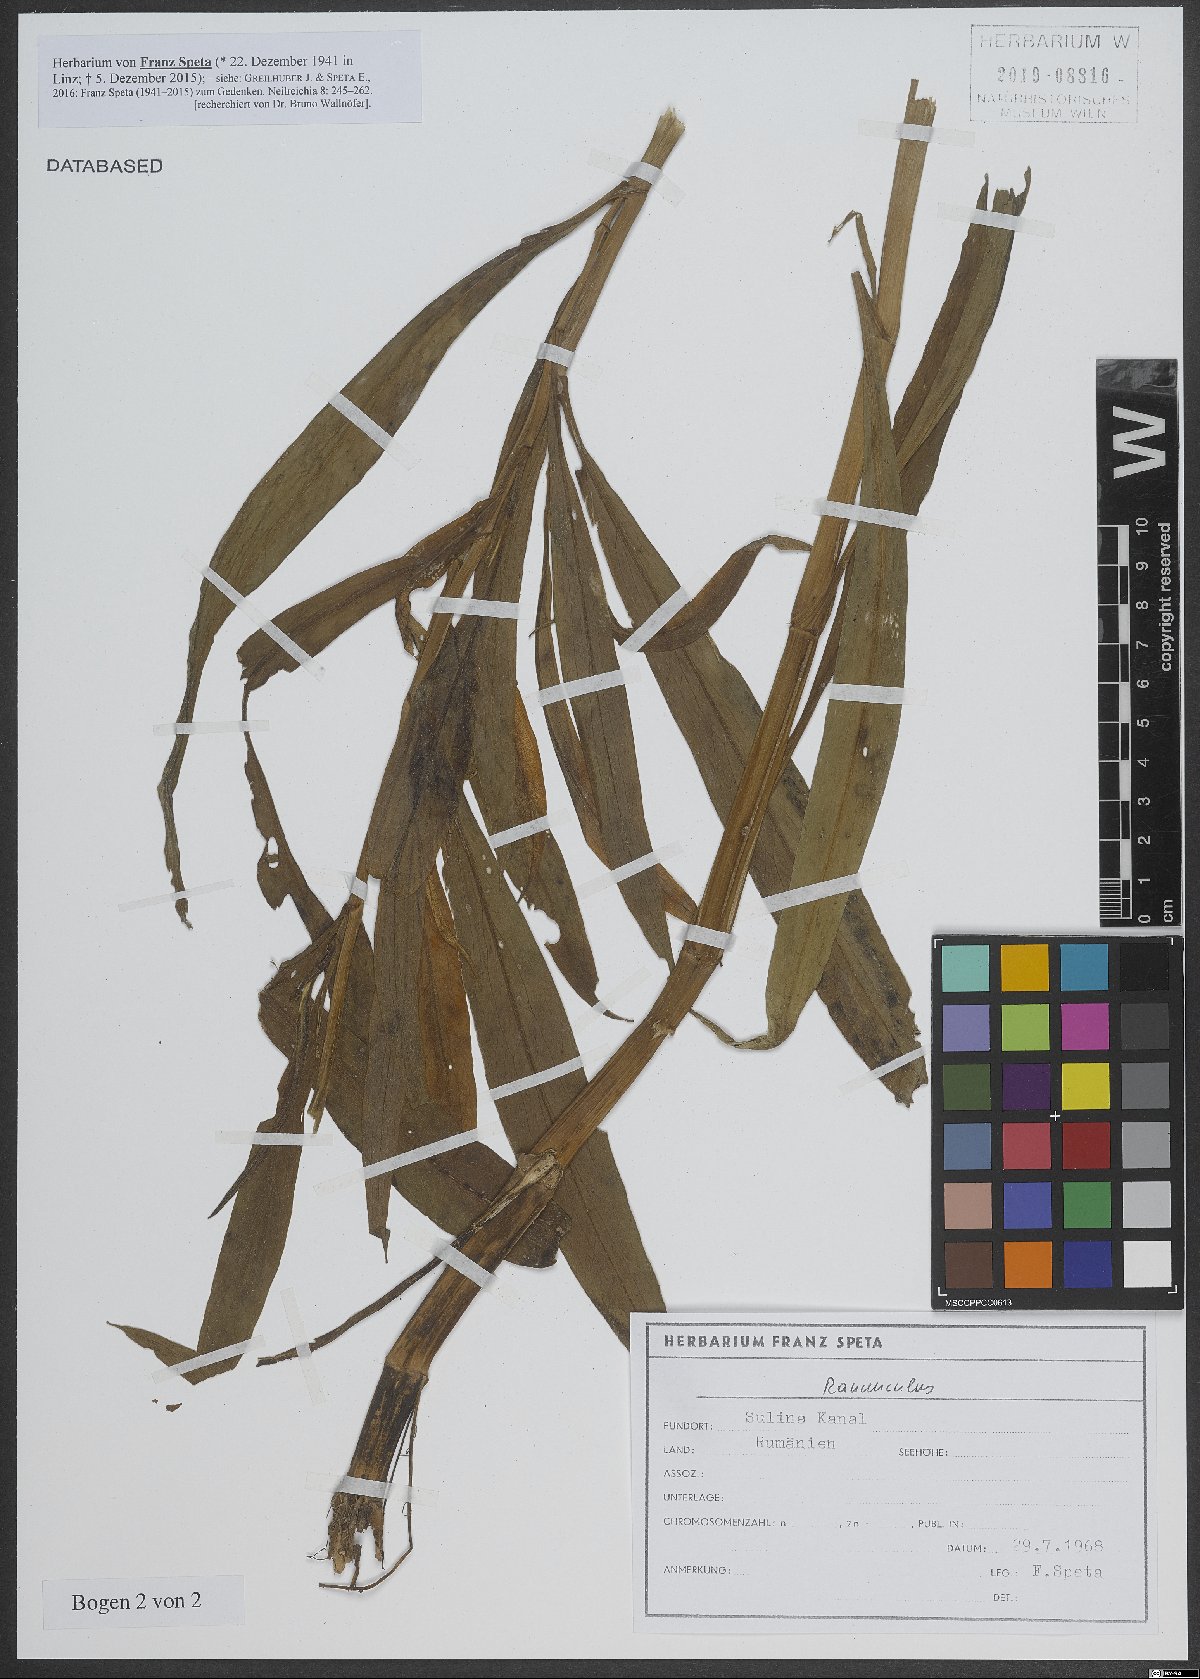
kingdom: Plantae
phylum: Tracheophyta
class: Magnoliopsida
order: Ranunculales
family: Ranunculaceae
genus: Ranunculus
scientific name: Ranunculus
